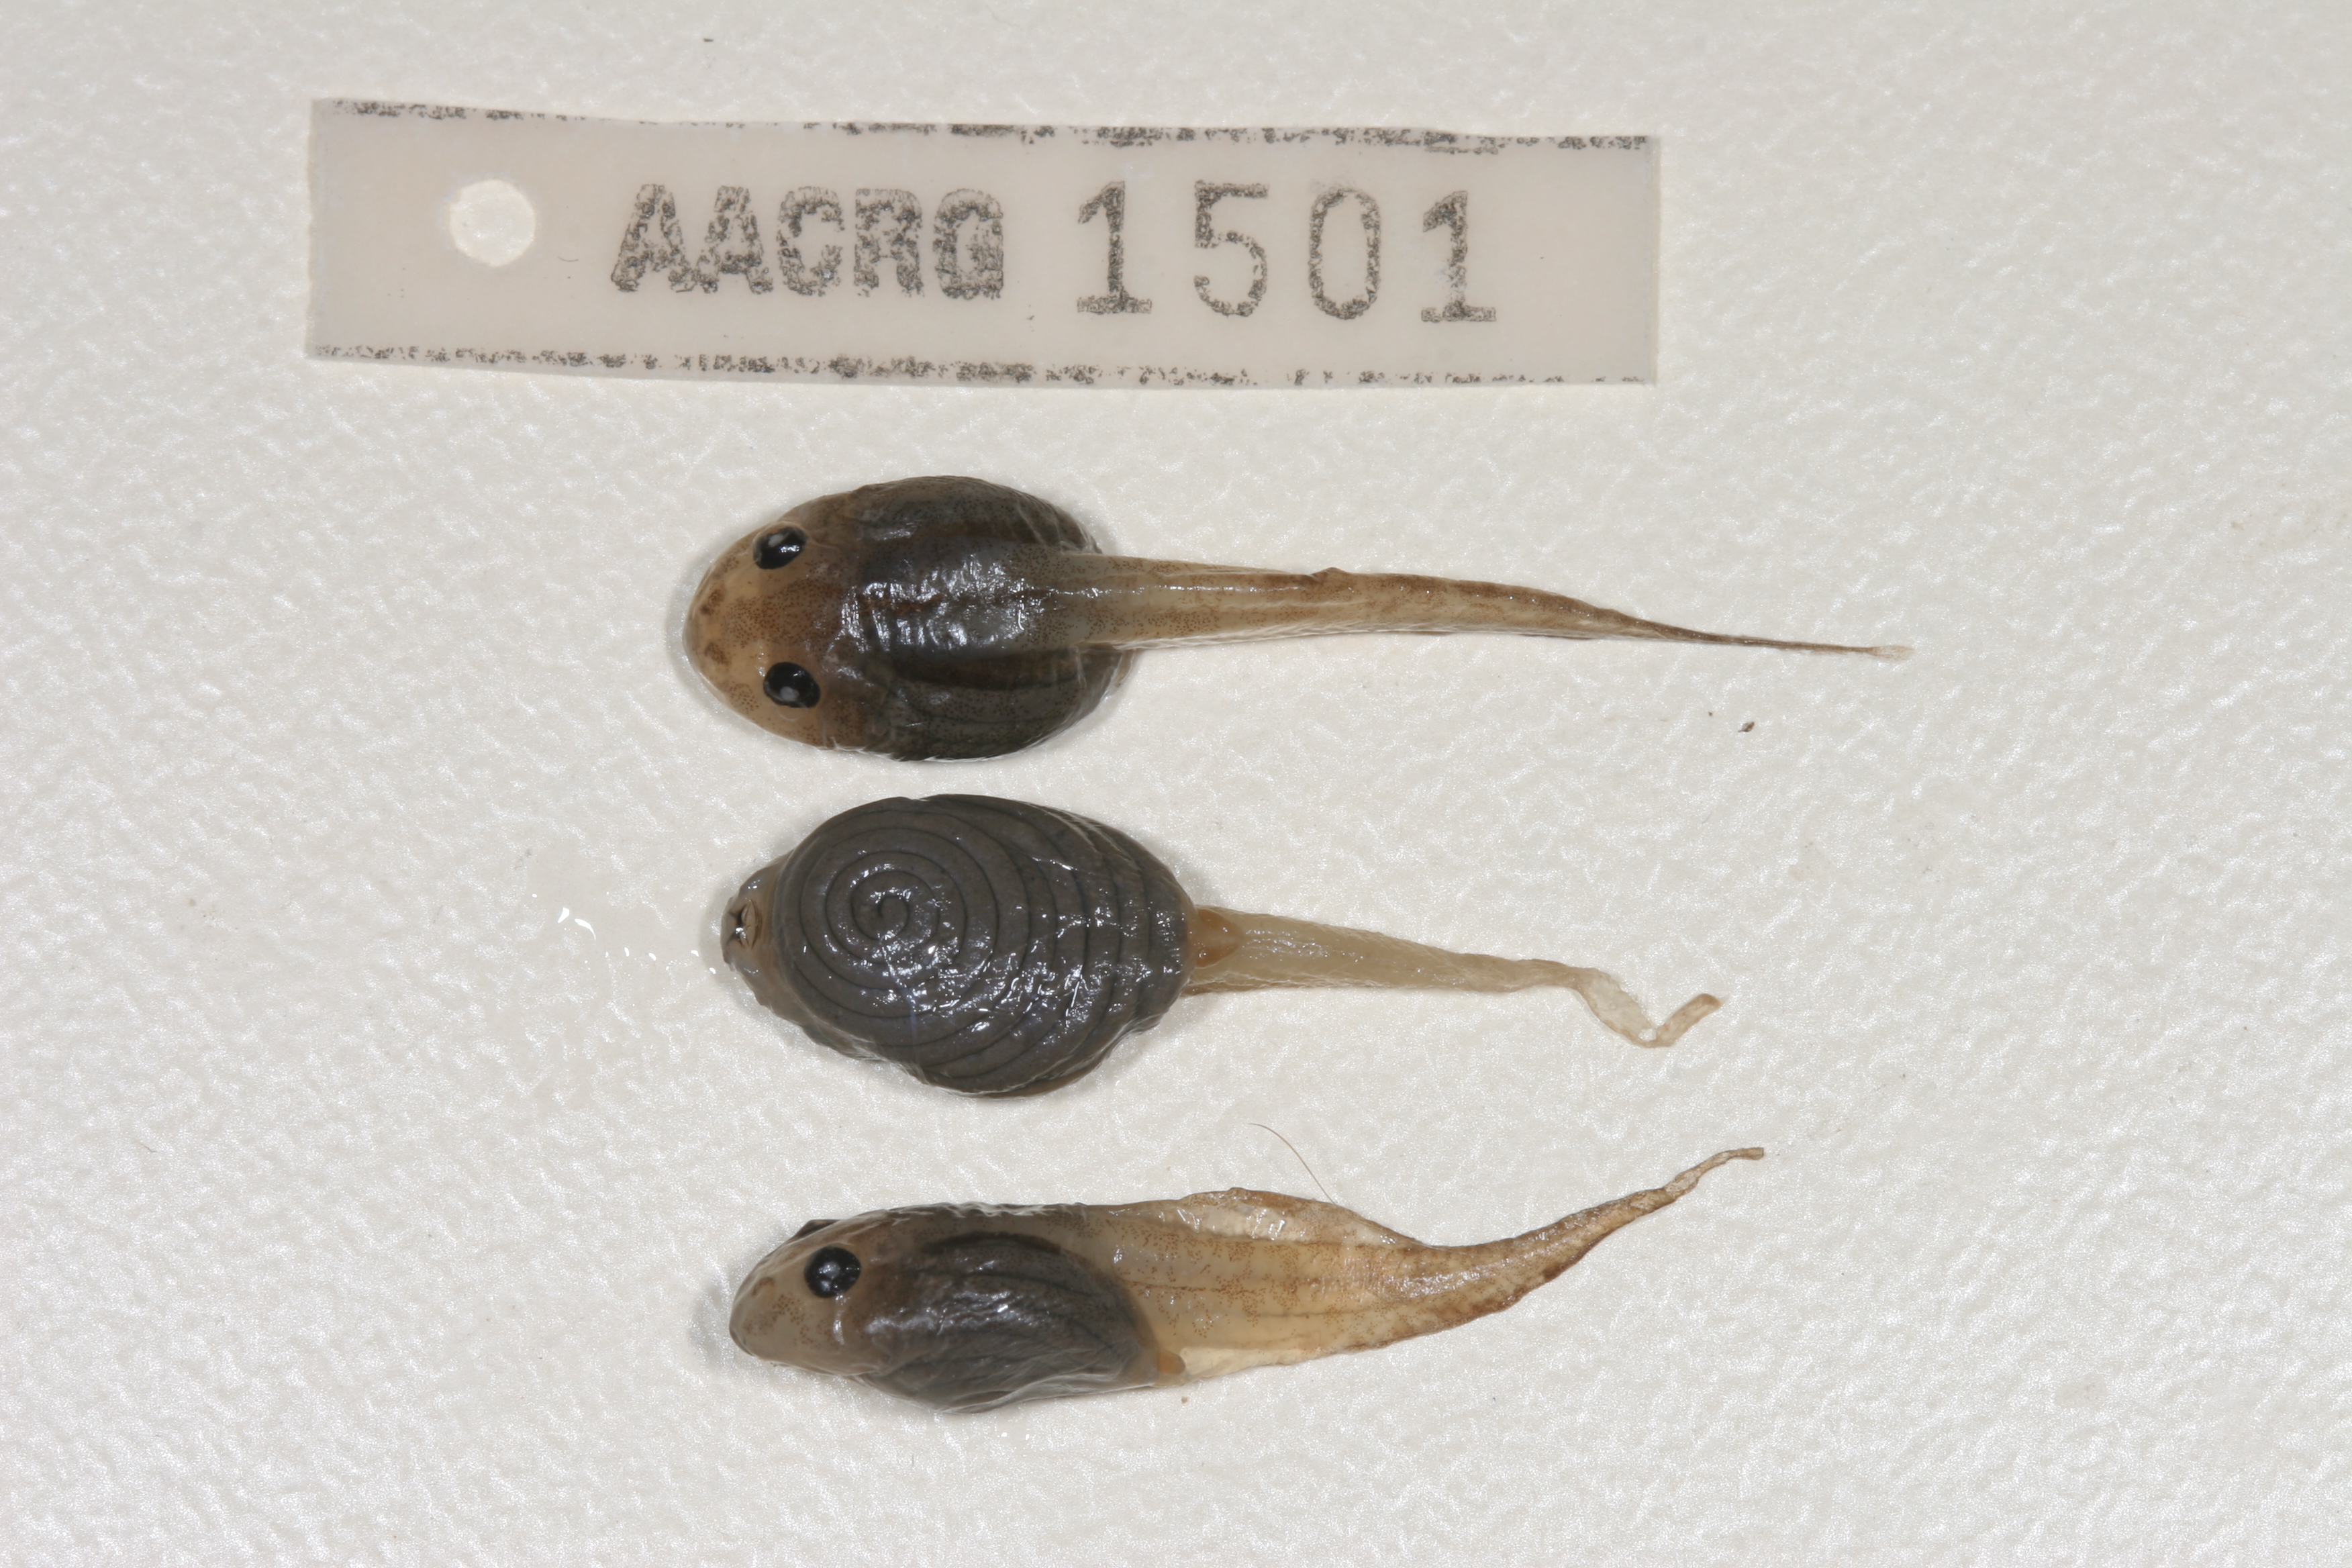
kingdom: Animalia
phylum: Chordata
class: Amphibia
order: Anura
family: Rhacophoridae
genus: Chiromantis
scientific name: Chiromantis xerampelina
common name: African gray treefrog
